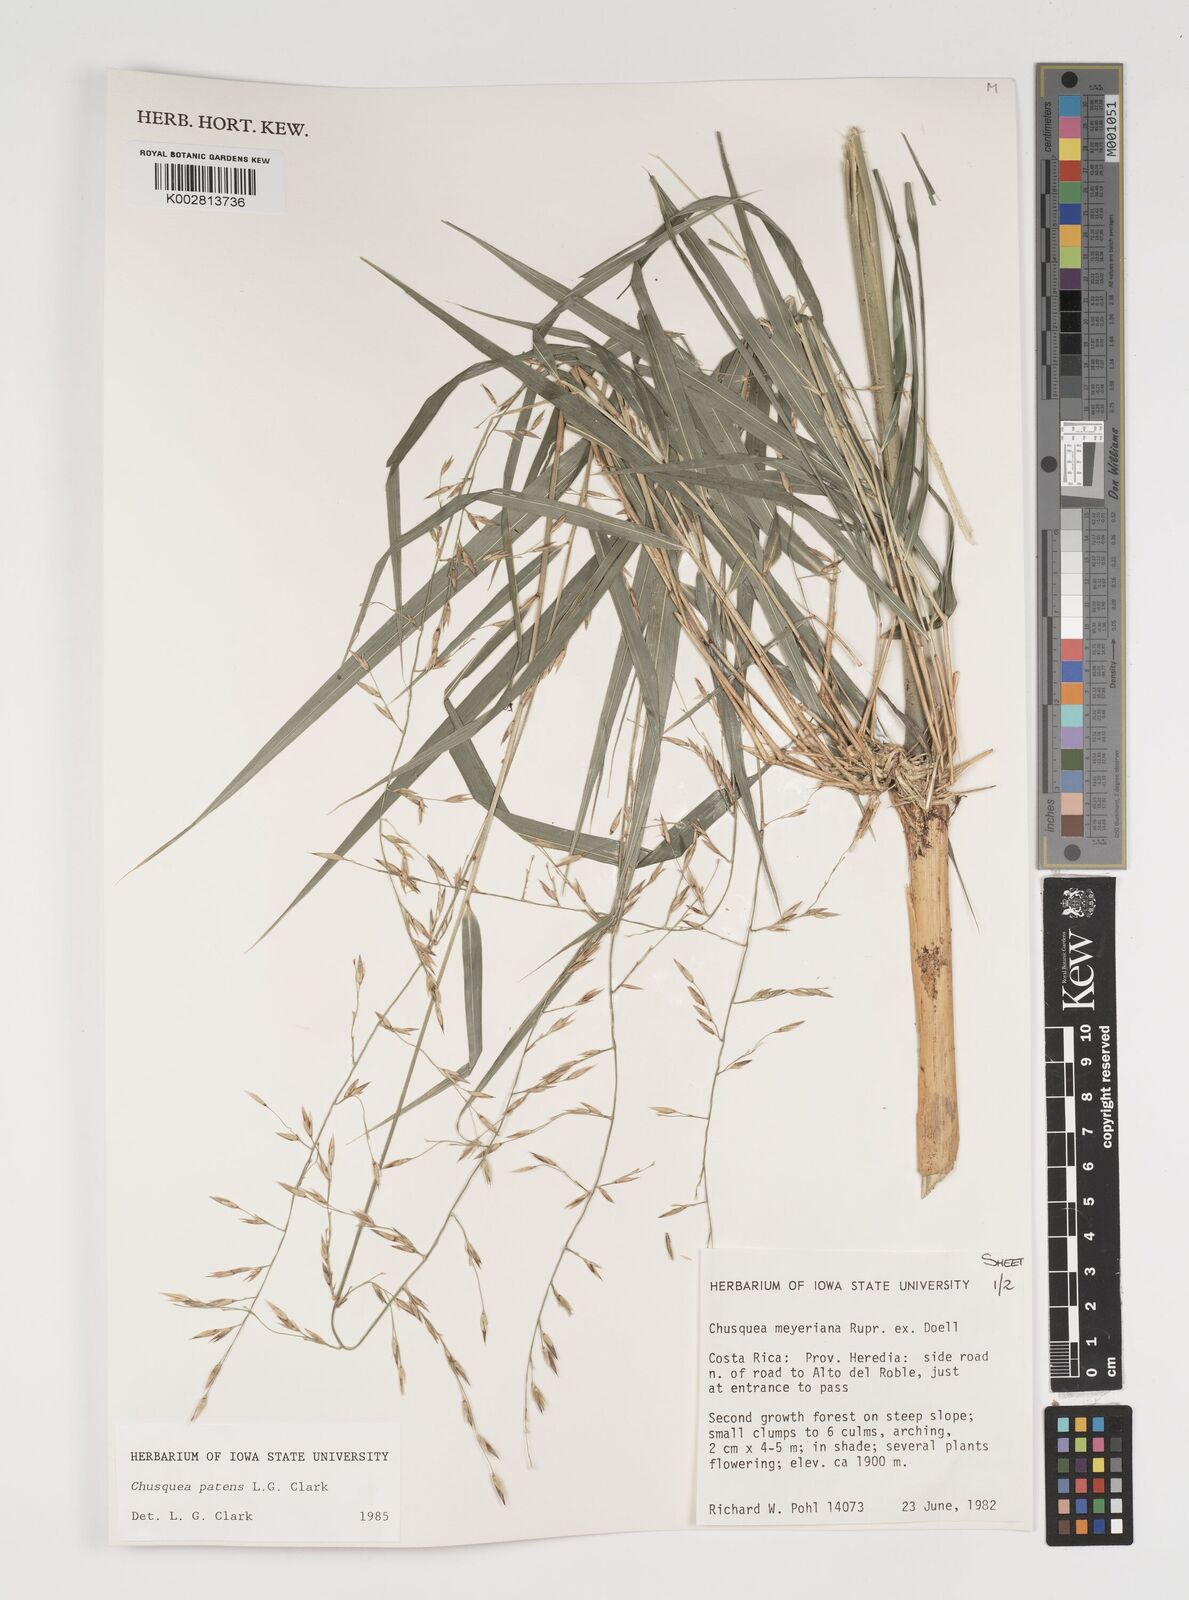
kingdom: Plantae
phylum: Tracheophyta
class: Liliopsida
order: Poales
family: Poaceae
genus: Chusquea
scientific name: Chusquea patens
